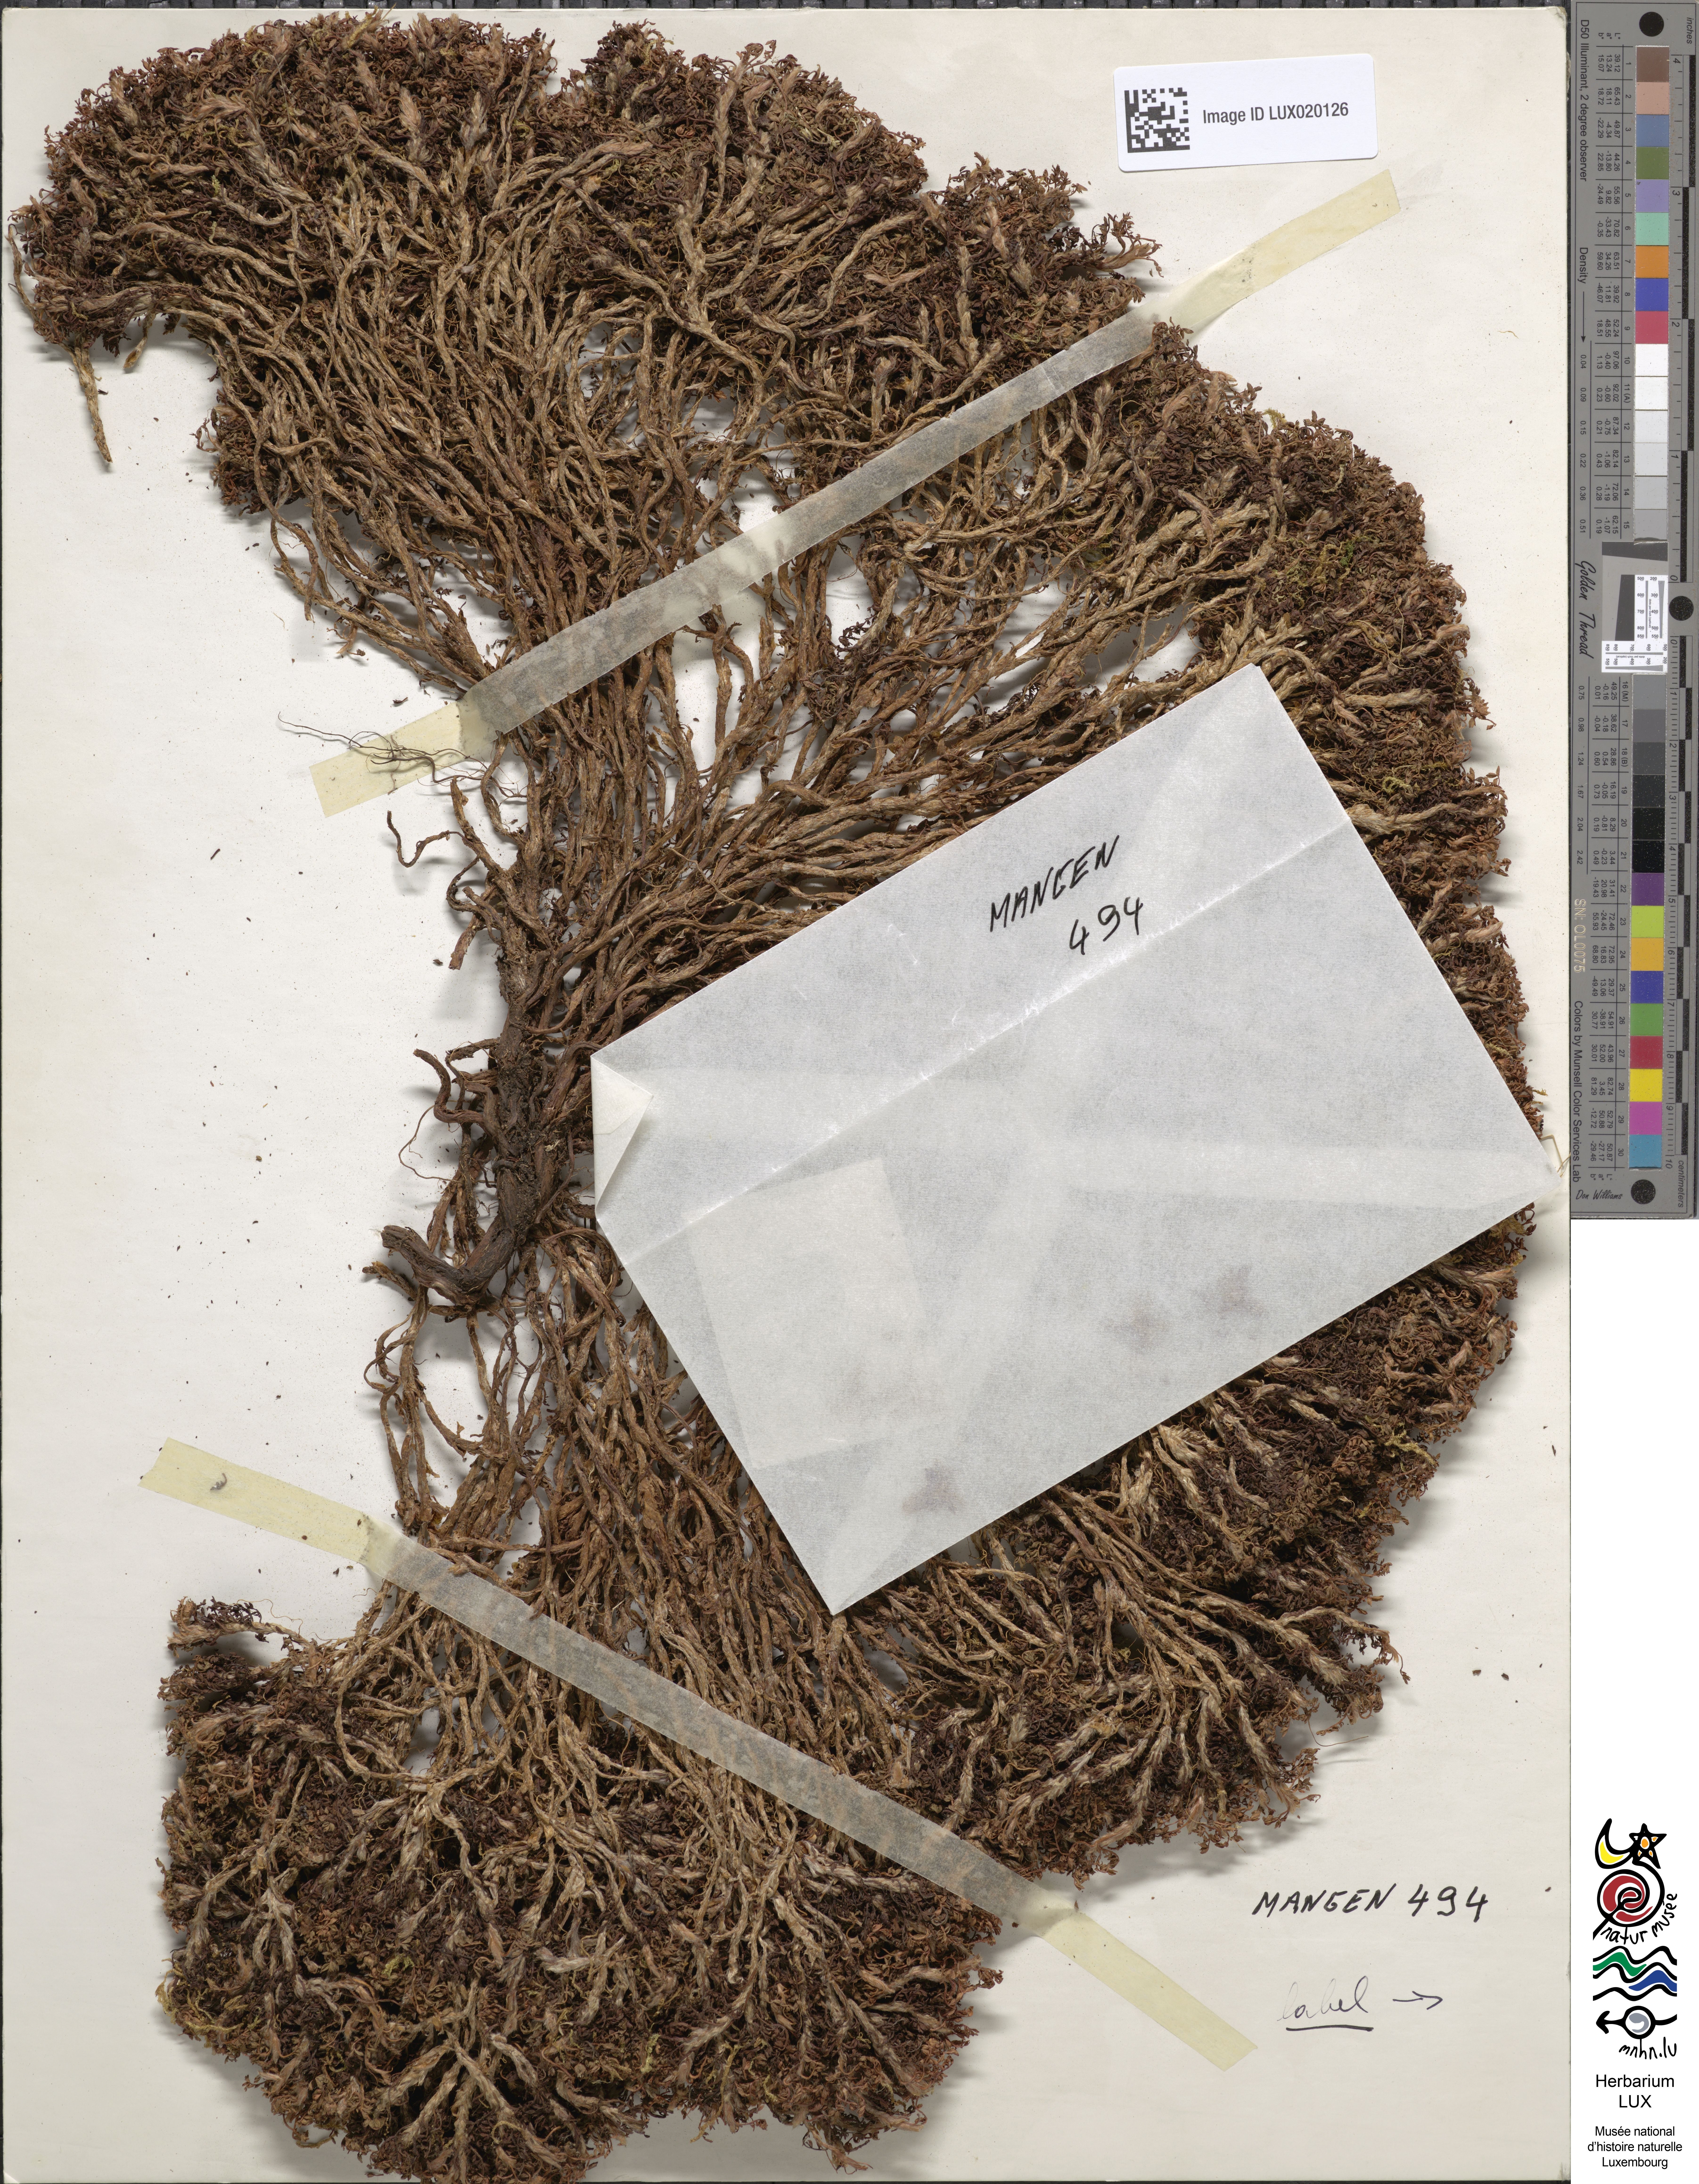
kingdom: Plantae
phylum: Tracheophyta
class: Magnoliopsida
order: Rosales
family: Rosaceae
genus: Argentina
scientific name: Argentina irianensis
